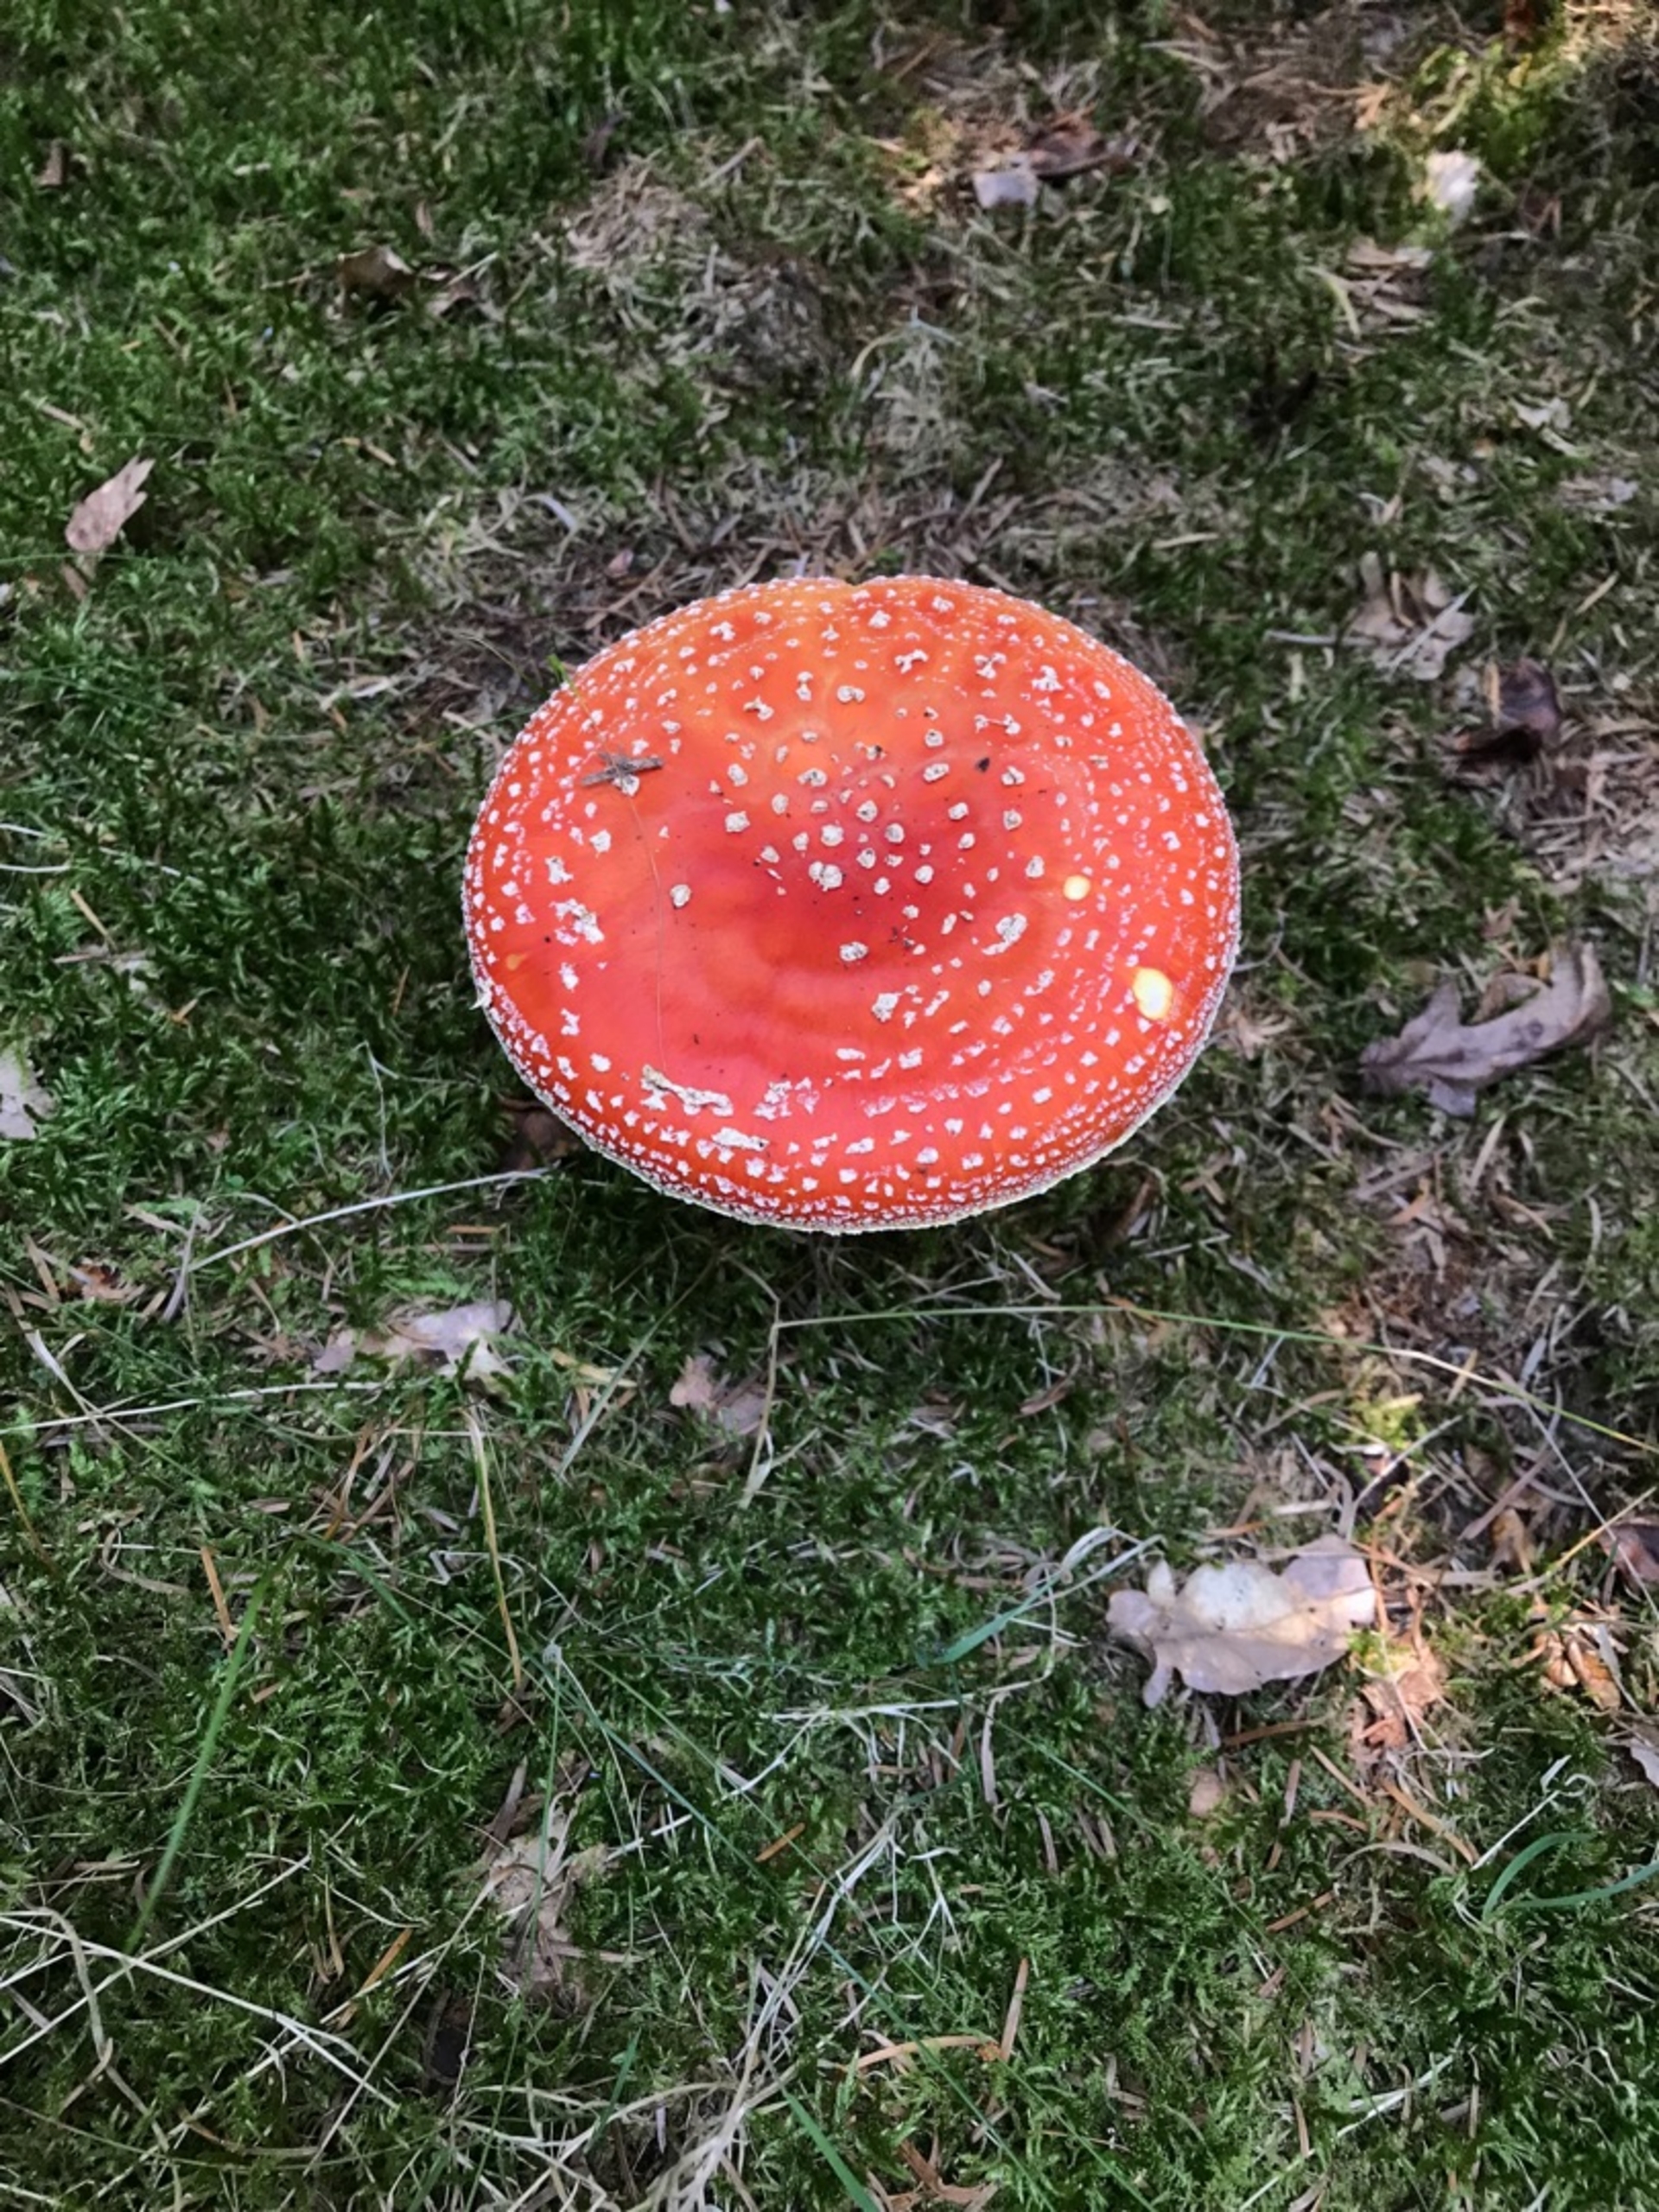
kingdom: Fungi
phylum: Basidiomycota
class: Agaricomycetes
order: Agaricales
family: Amanitaceae
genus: Amanita
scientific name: Amanita muscaria
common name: Rød fluesvamp
